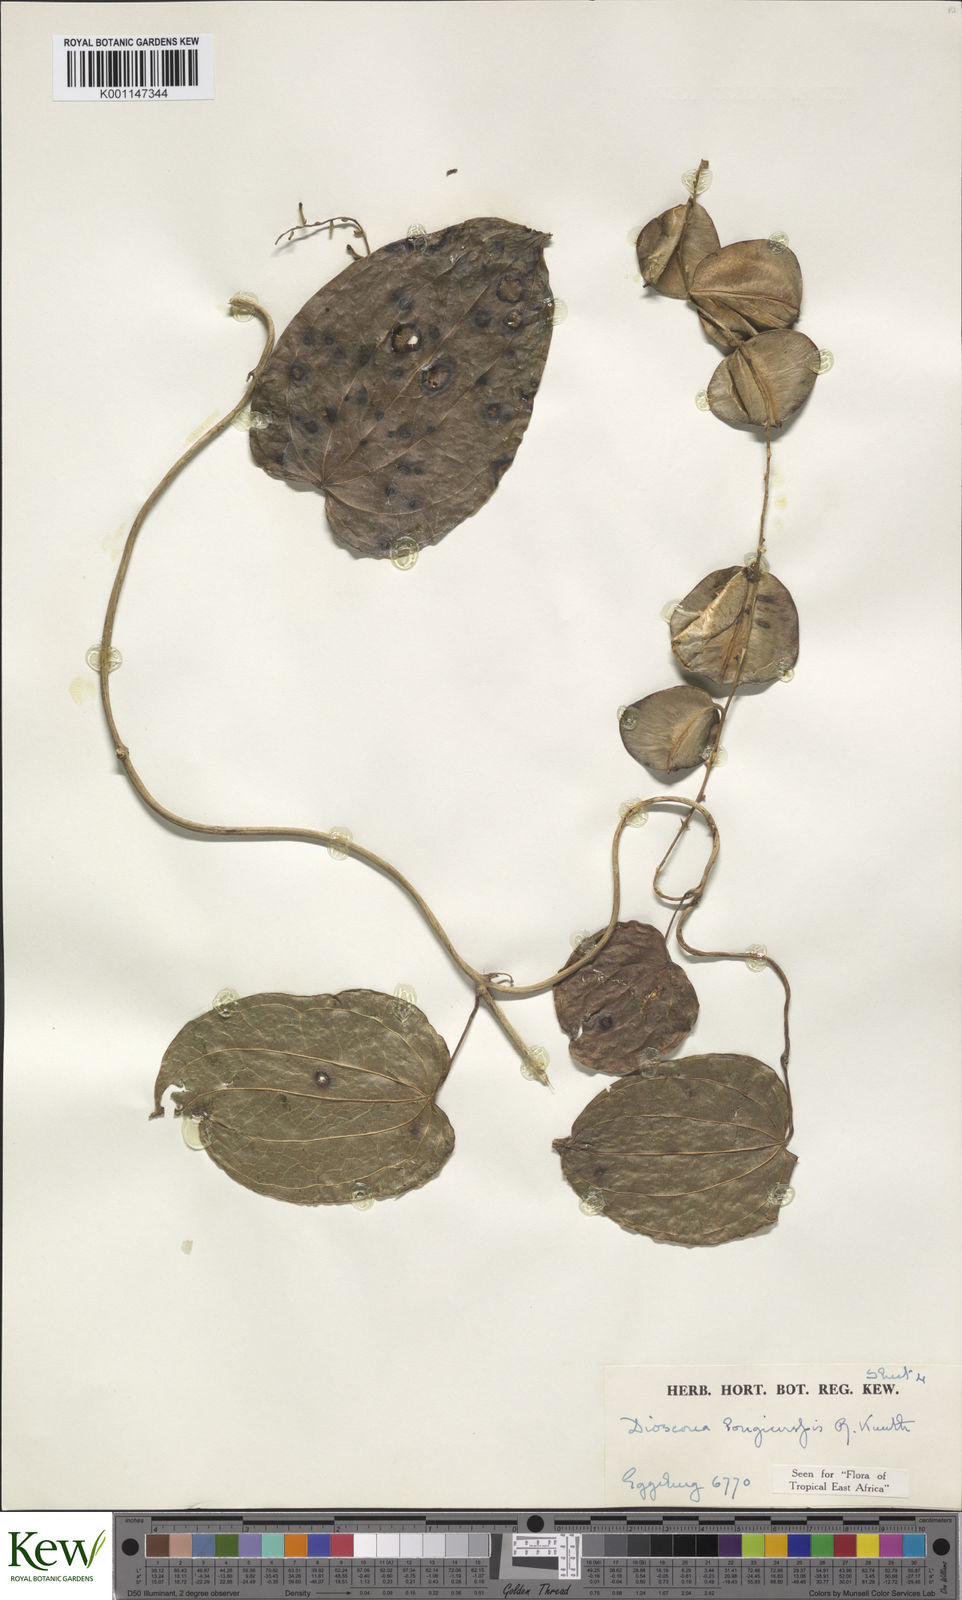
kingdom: Plantae
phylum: Tracheophyta
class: Liliopsida
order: Dioscoreales
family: Dioscoreaceae
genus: Dioscorea
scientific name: Dioscorea longicuspis
